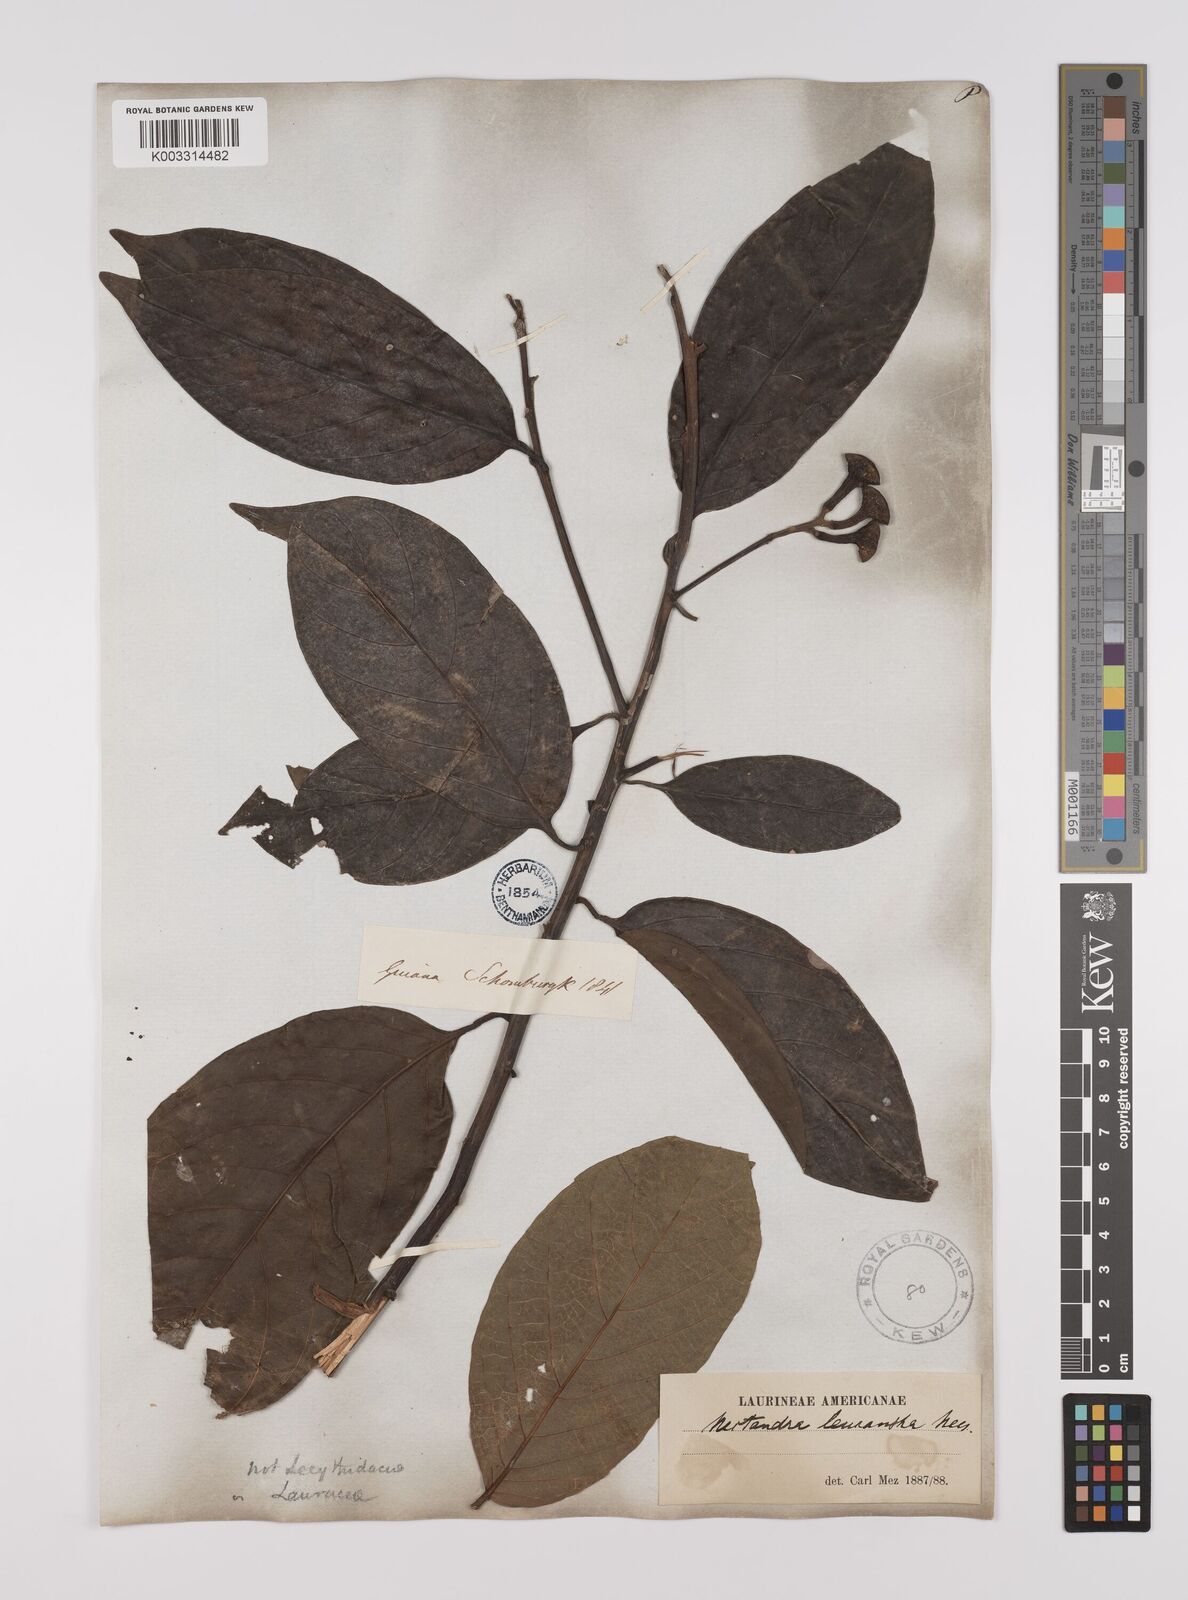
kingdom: Plantae
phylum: Tracheophyta
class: Magnoliopsida
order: Laurales
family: Lauraceae
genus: Nectandra
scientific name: Nectandra leucantha
